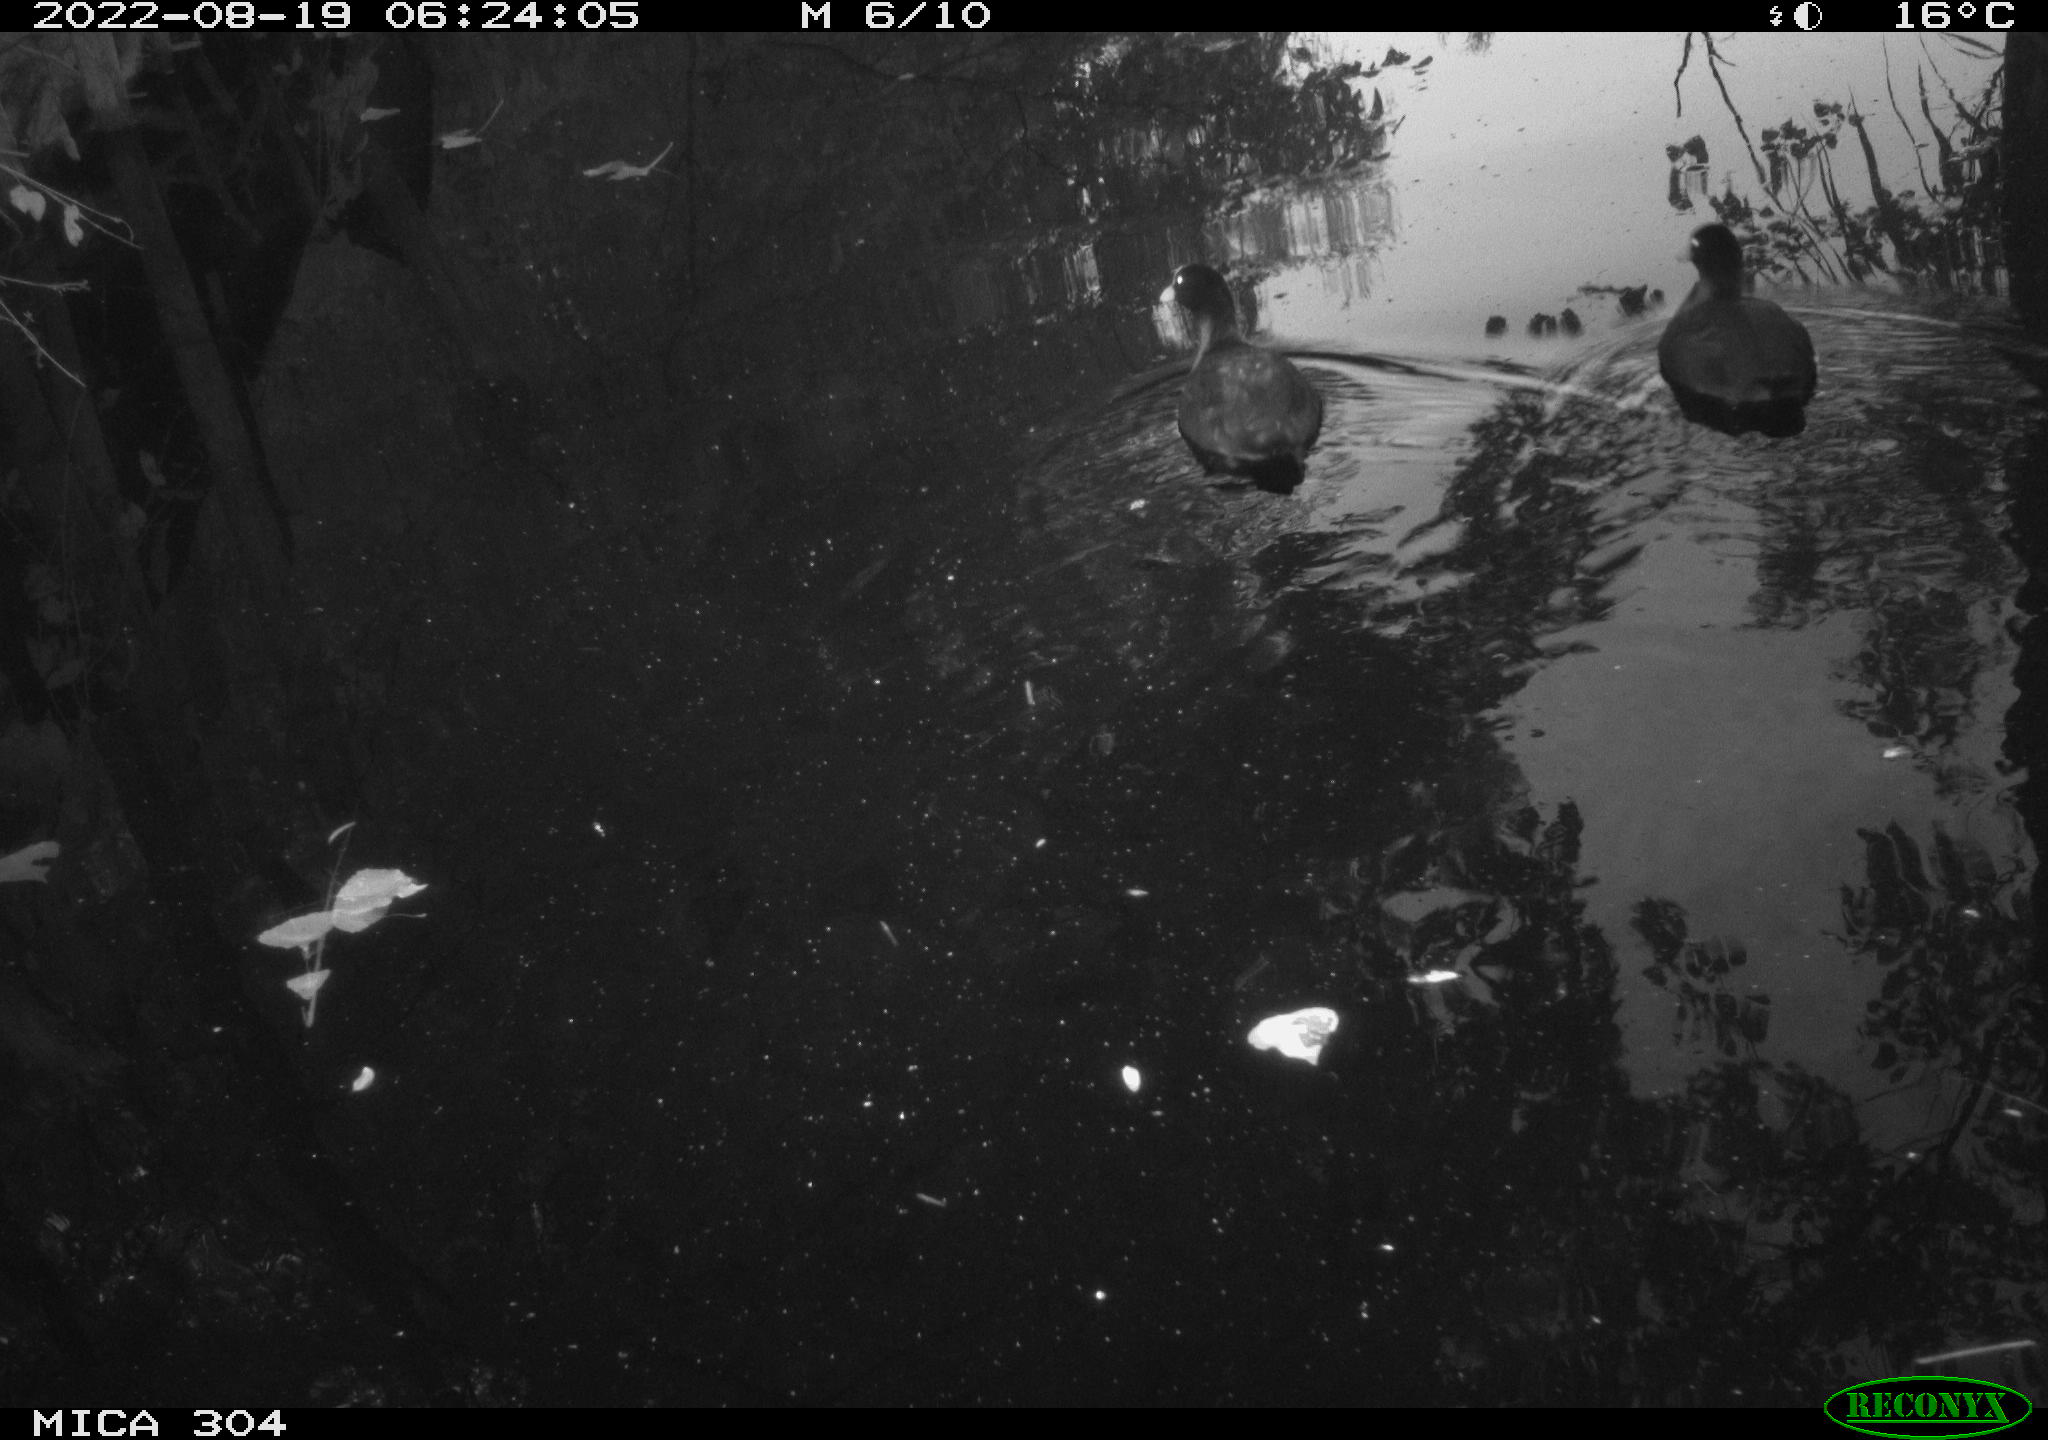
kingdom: Animalia
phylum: Chordata
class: Aves
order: Gruiformes
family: Rallidae
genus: Fulica
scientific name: Fulica atra
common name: Eurasian coot
